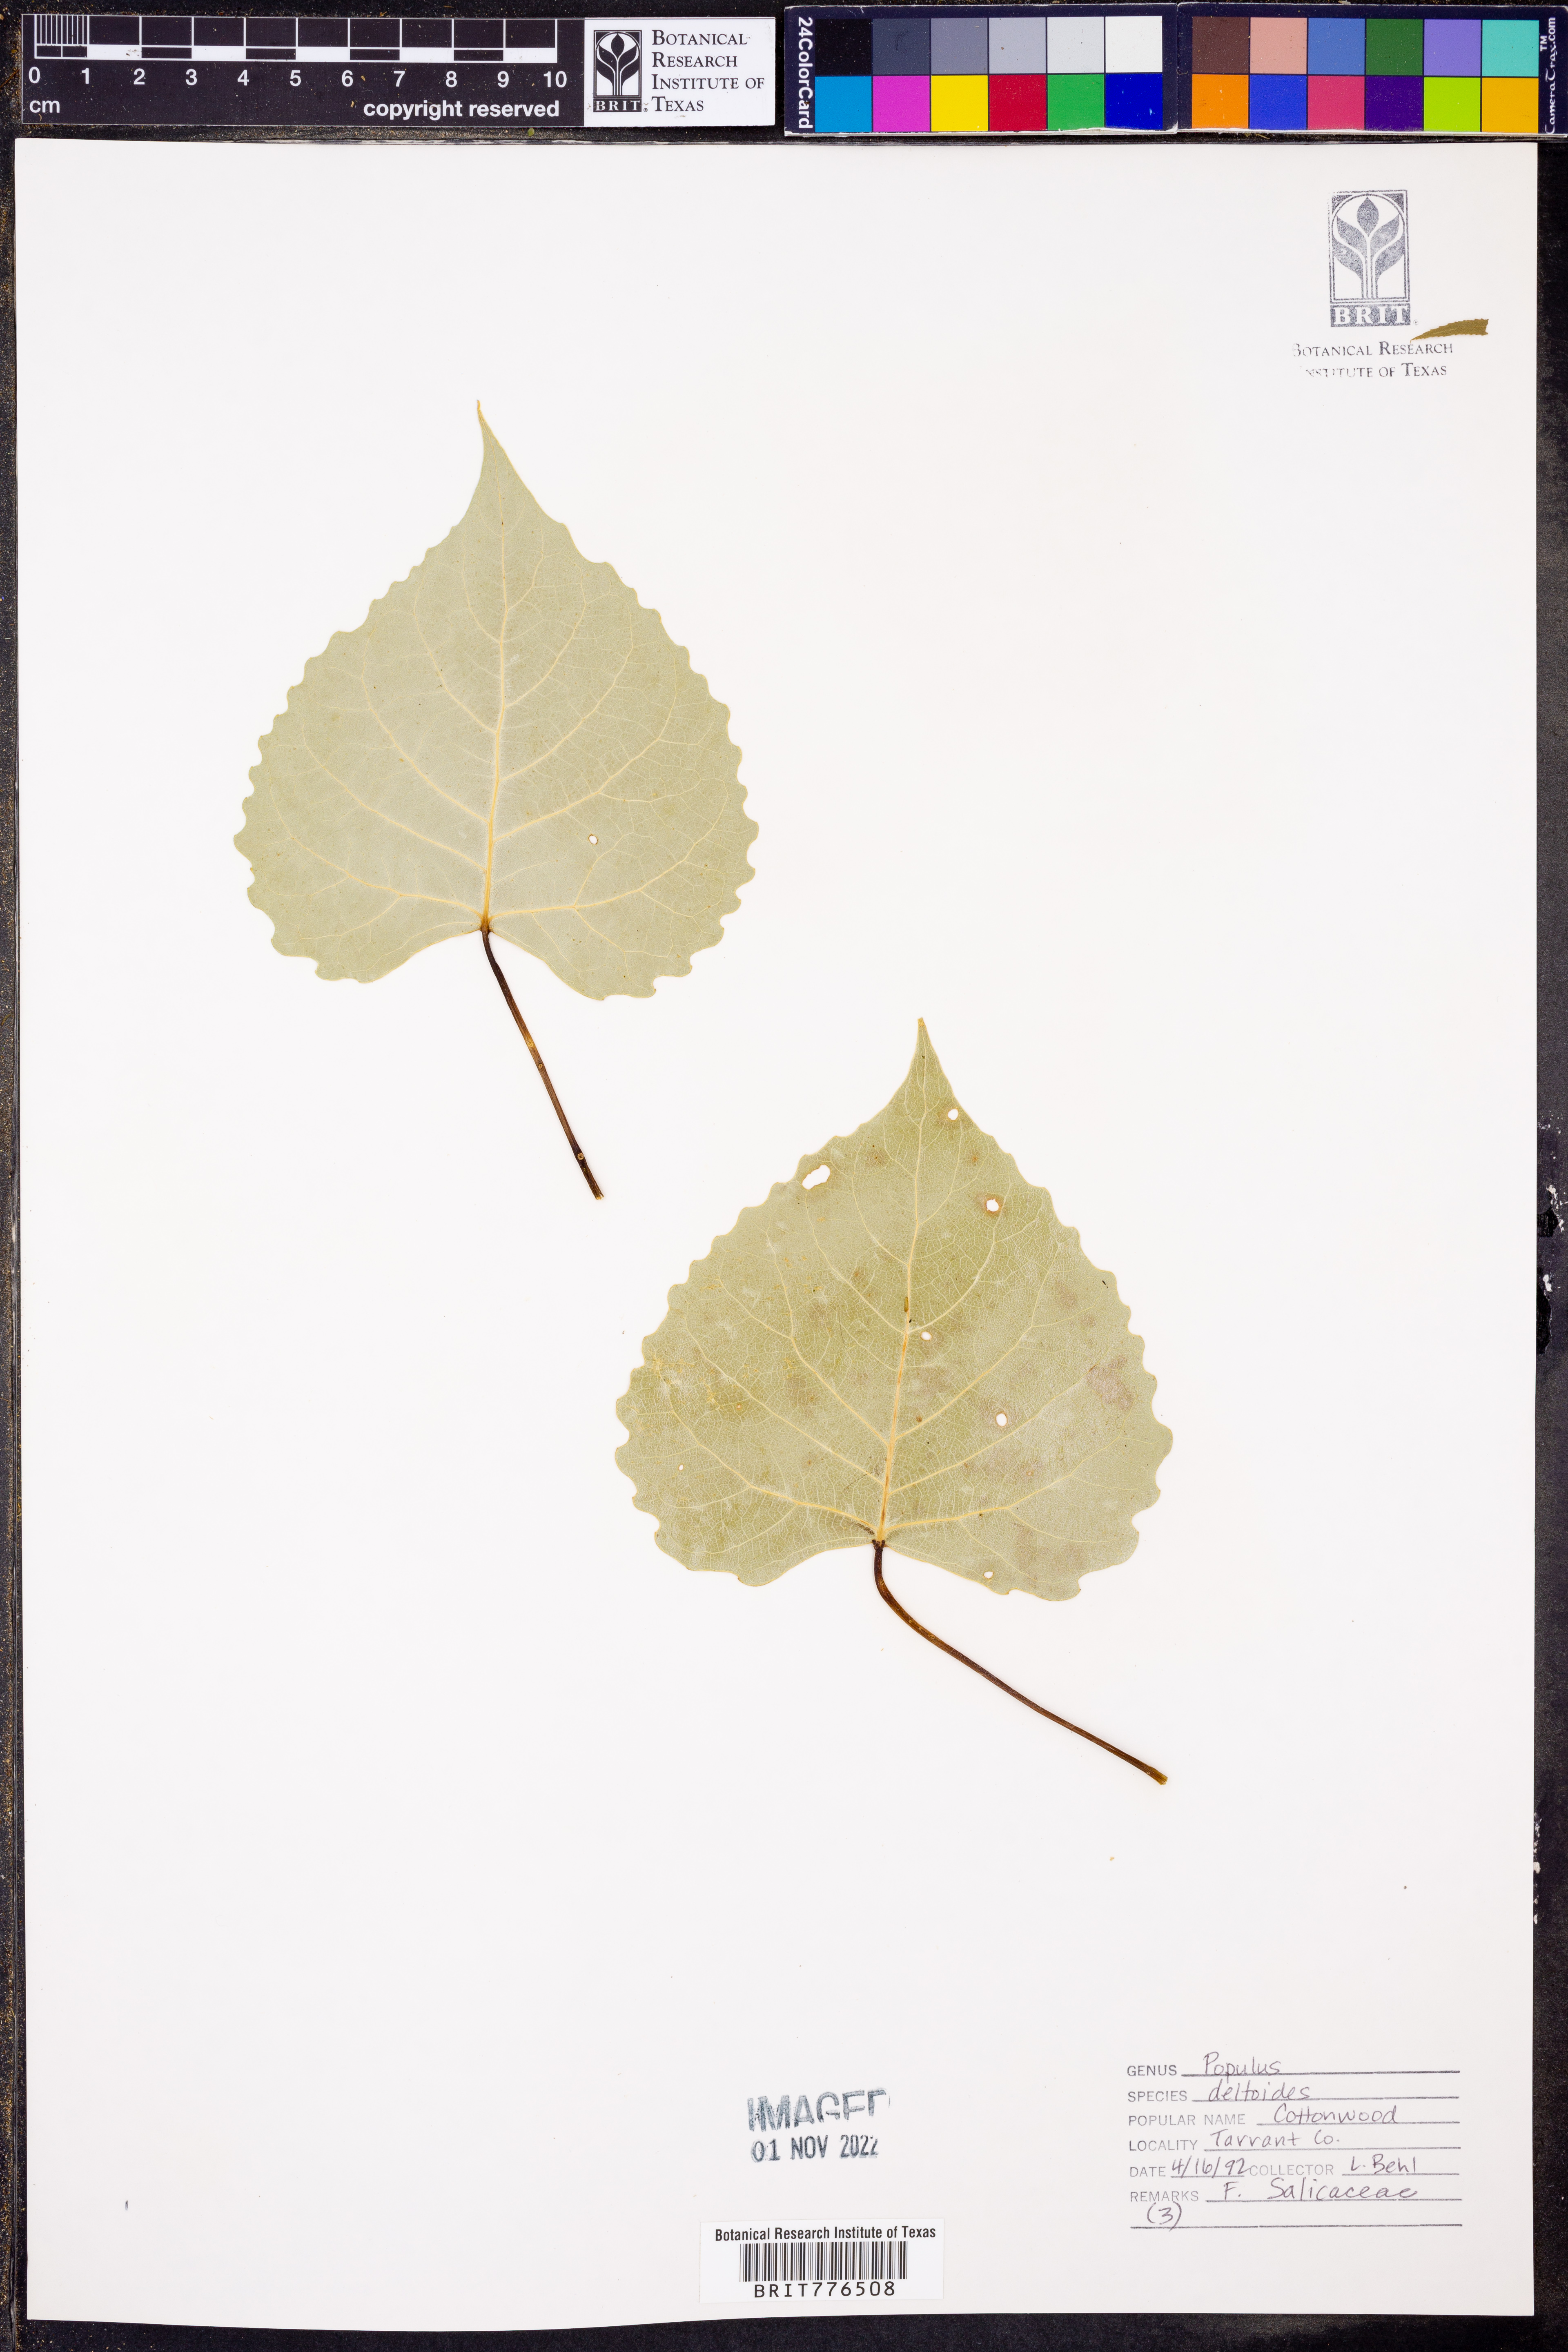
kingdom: Plantae
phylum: Tracheophyta
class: Magnoliopsida
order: Malpighiales
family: Salicaceae
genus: Populus
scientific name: Populus deltoides
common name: Eastern cottonwood
